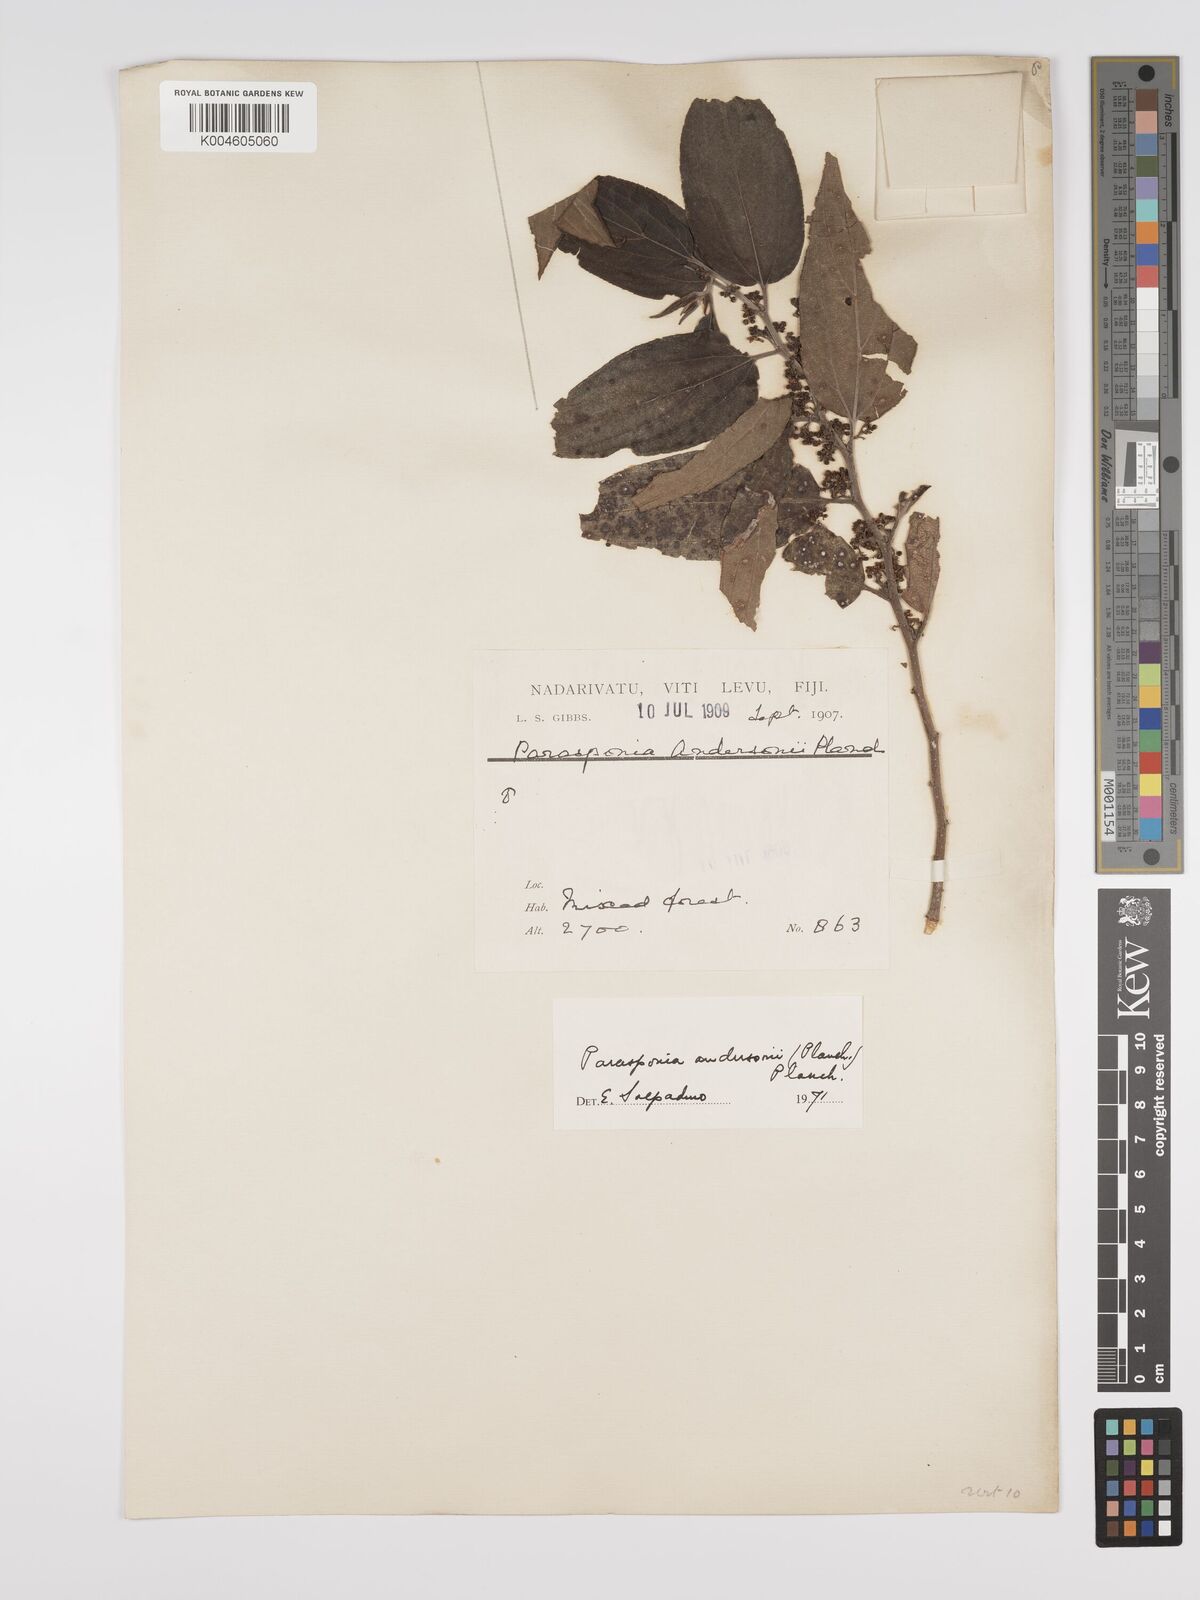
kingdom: Plantae
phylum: Tracheophyta
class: Magnoliopsida
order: Rosales
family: Cannabaceae
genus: Trema
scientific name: Trema andersonii
